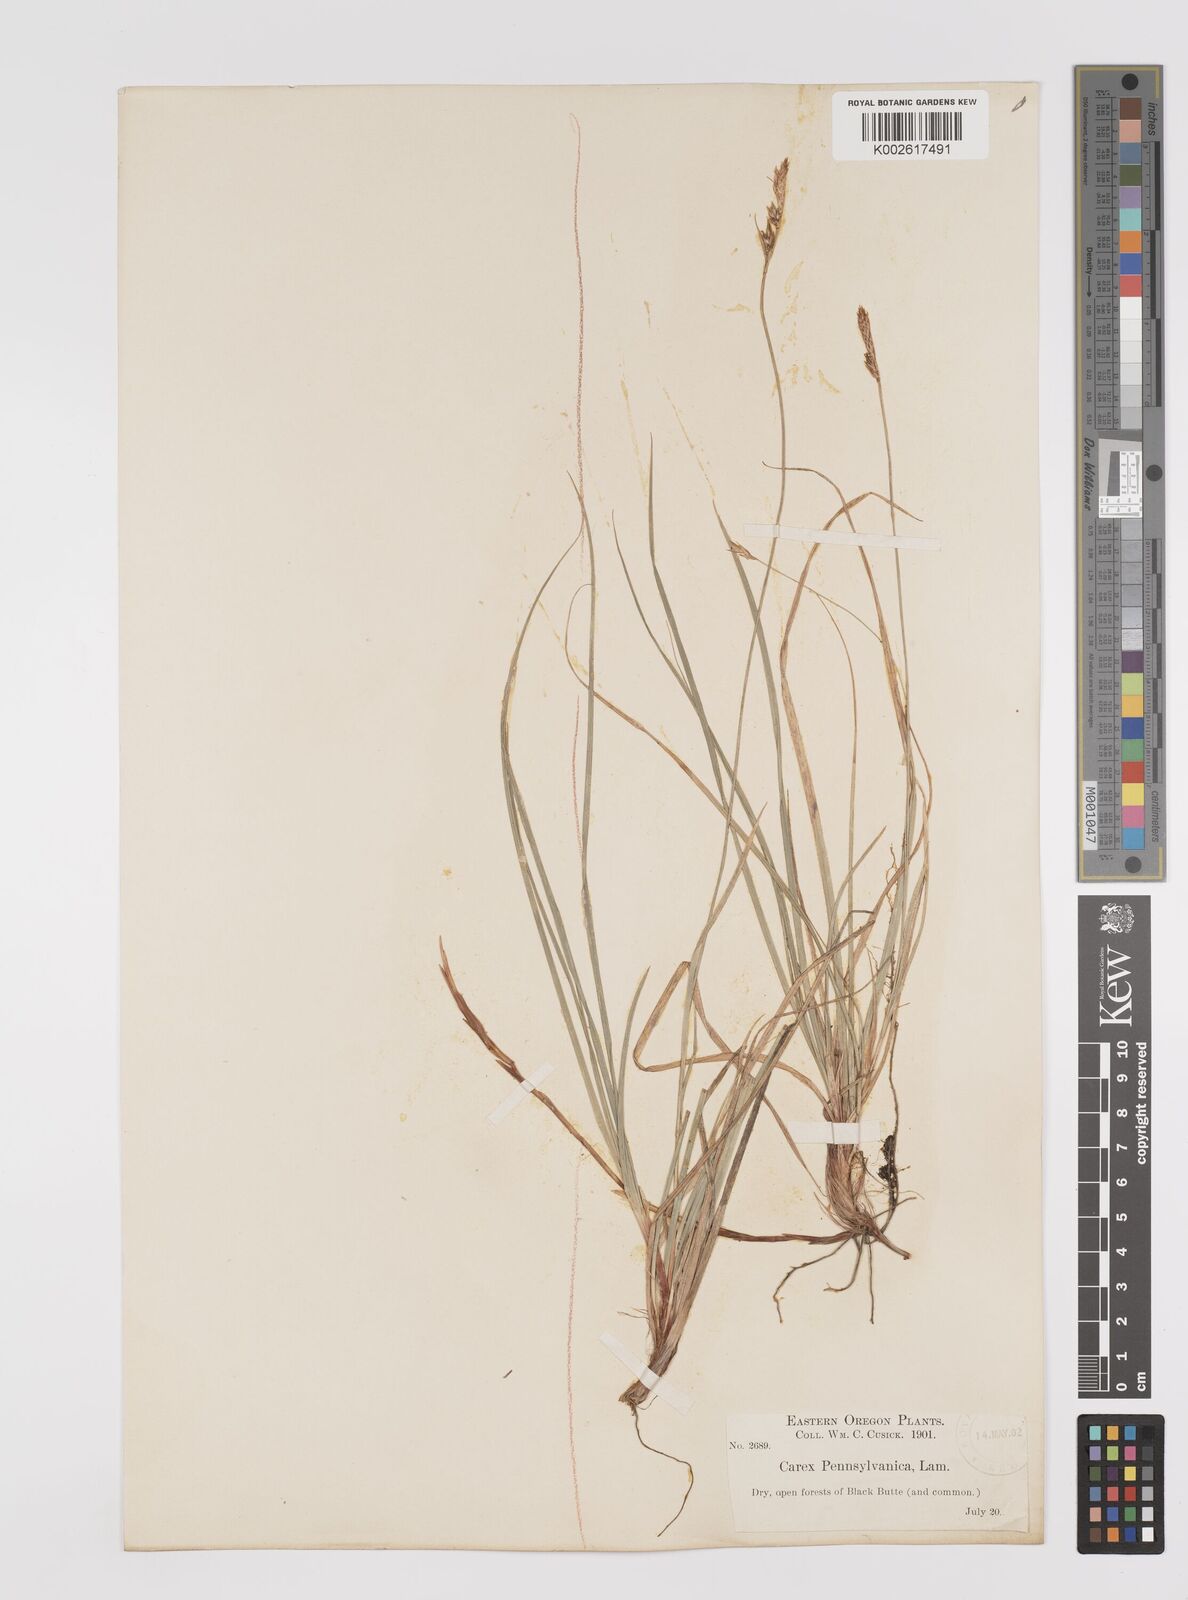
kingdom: Plantae
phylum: Tracheophyta
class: Liliopsida
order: Poales
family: Cyperaceae
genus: Carex
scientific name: Carex pensylvanica
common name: Common oak sedge
